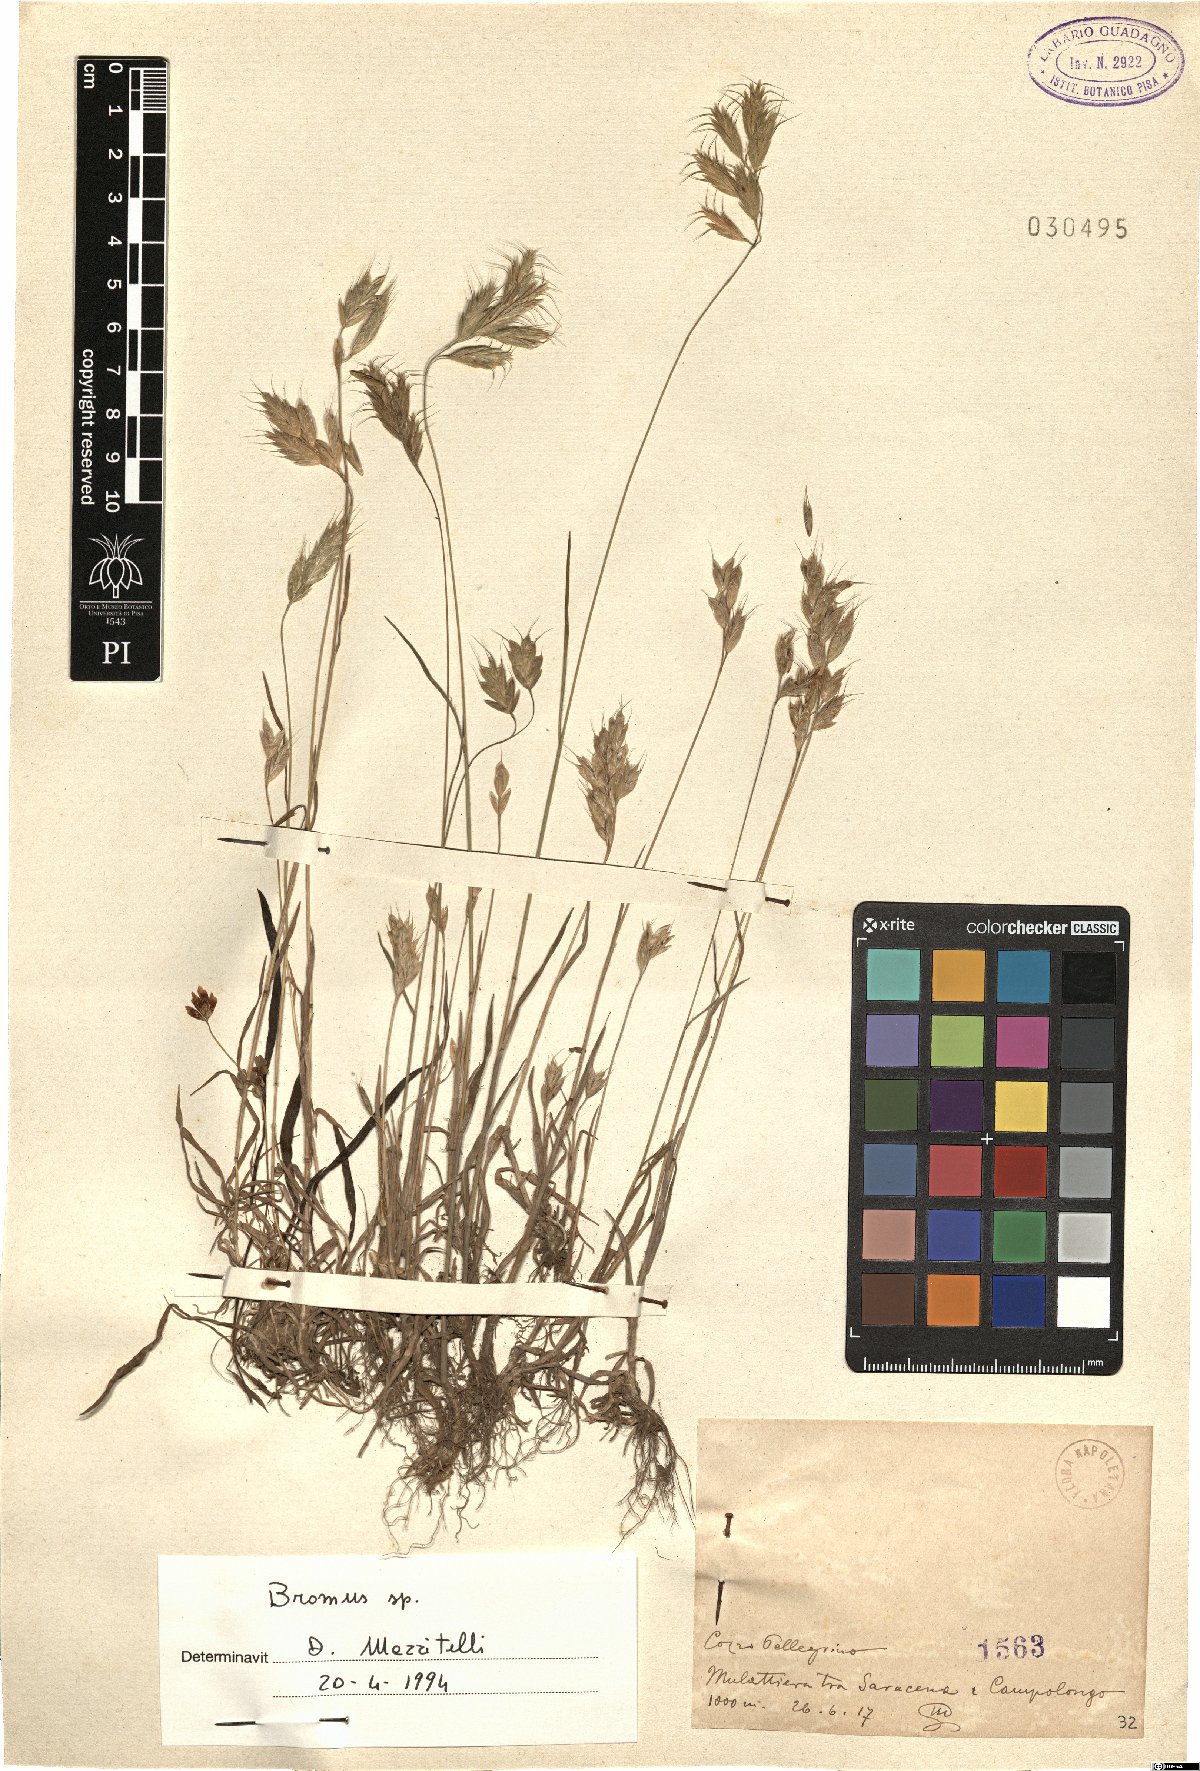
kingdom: Plantae
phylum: Tracheophyta
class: Liliopsida
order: Poales
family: Poaceae
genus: Bromus
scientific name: Bromus
